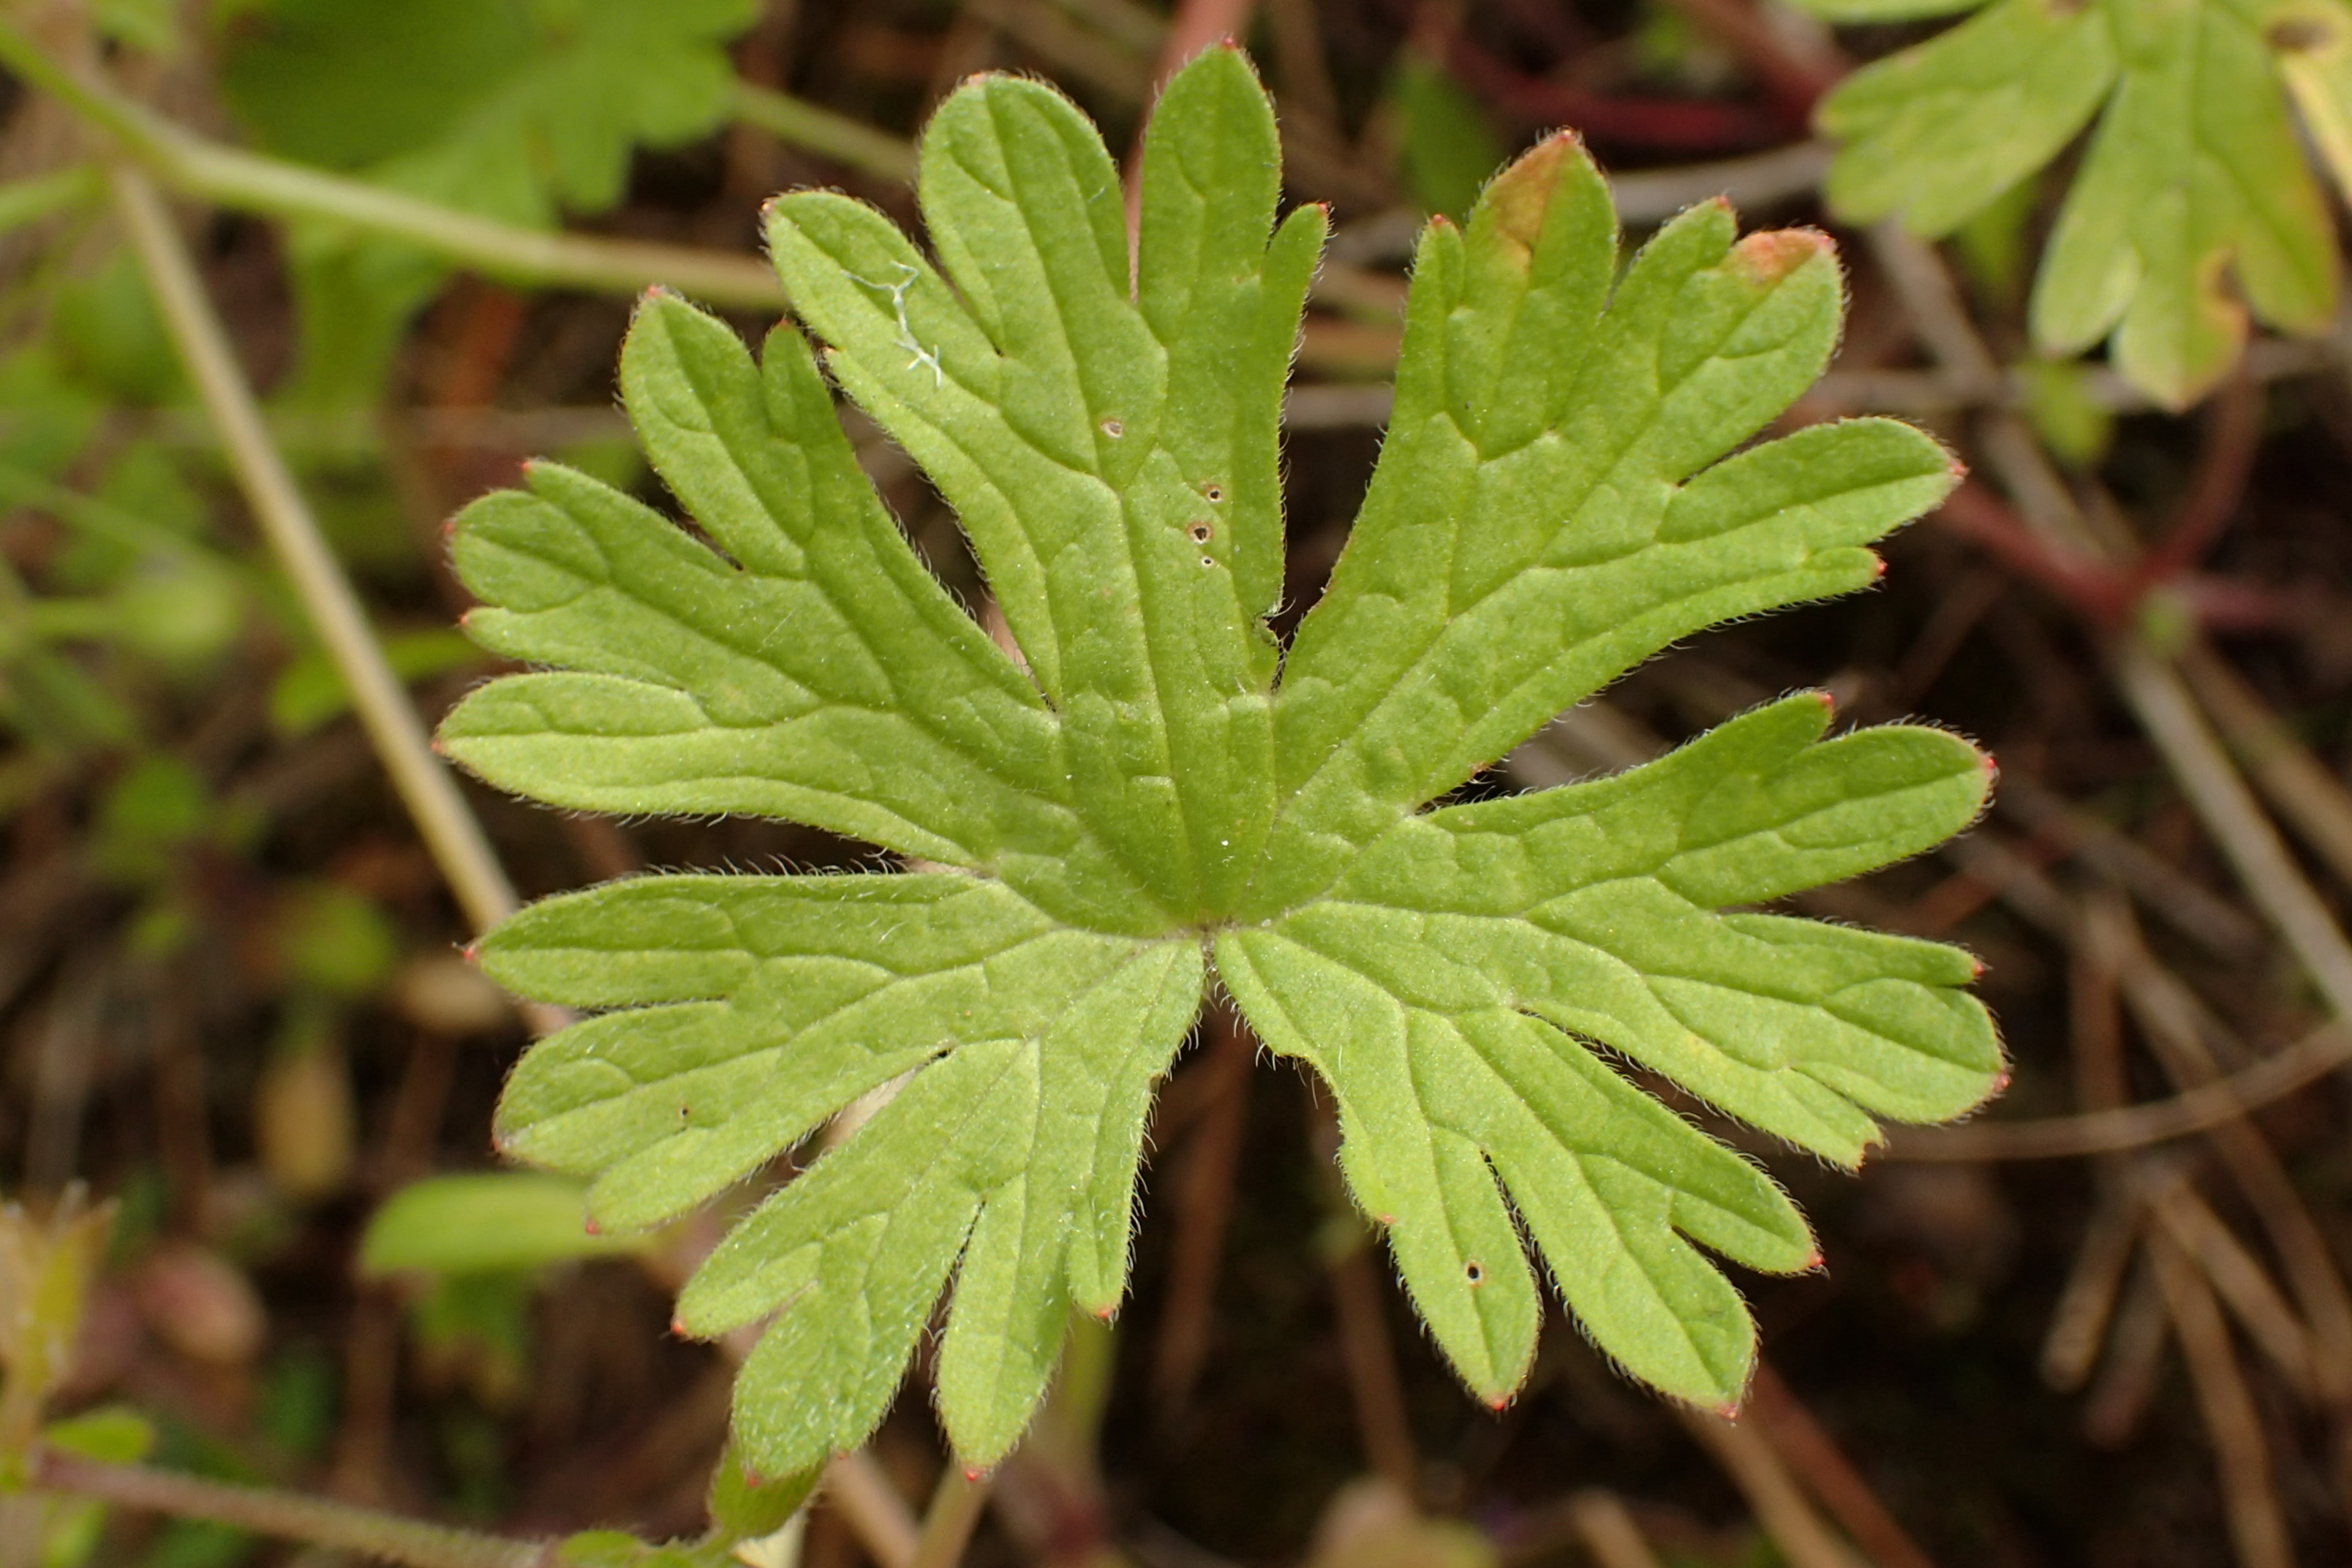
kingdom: Plantae
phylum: Tracheophyta
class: Magnoliopsida
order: Geraniales
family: Geraniaceae
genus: Geranium
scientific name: Geranium pusillum
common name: Liden storkenæb
